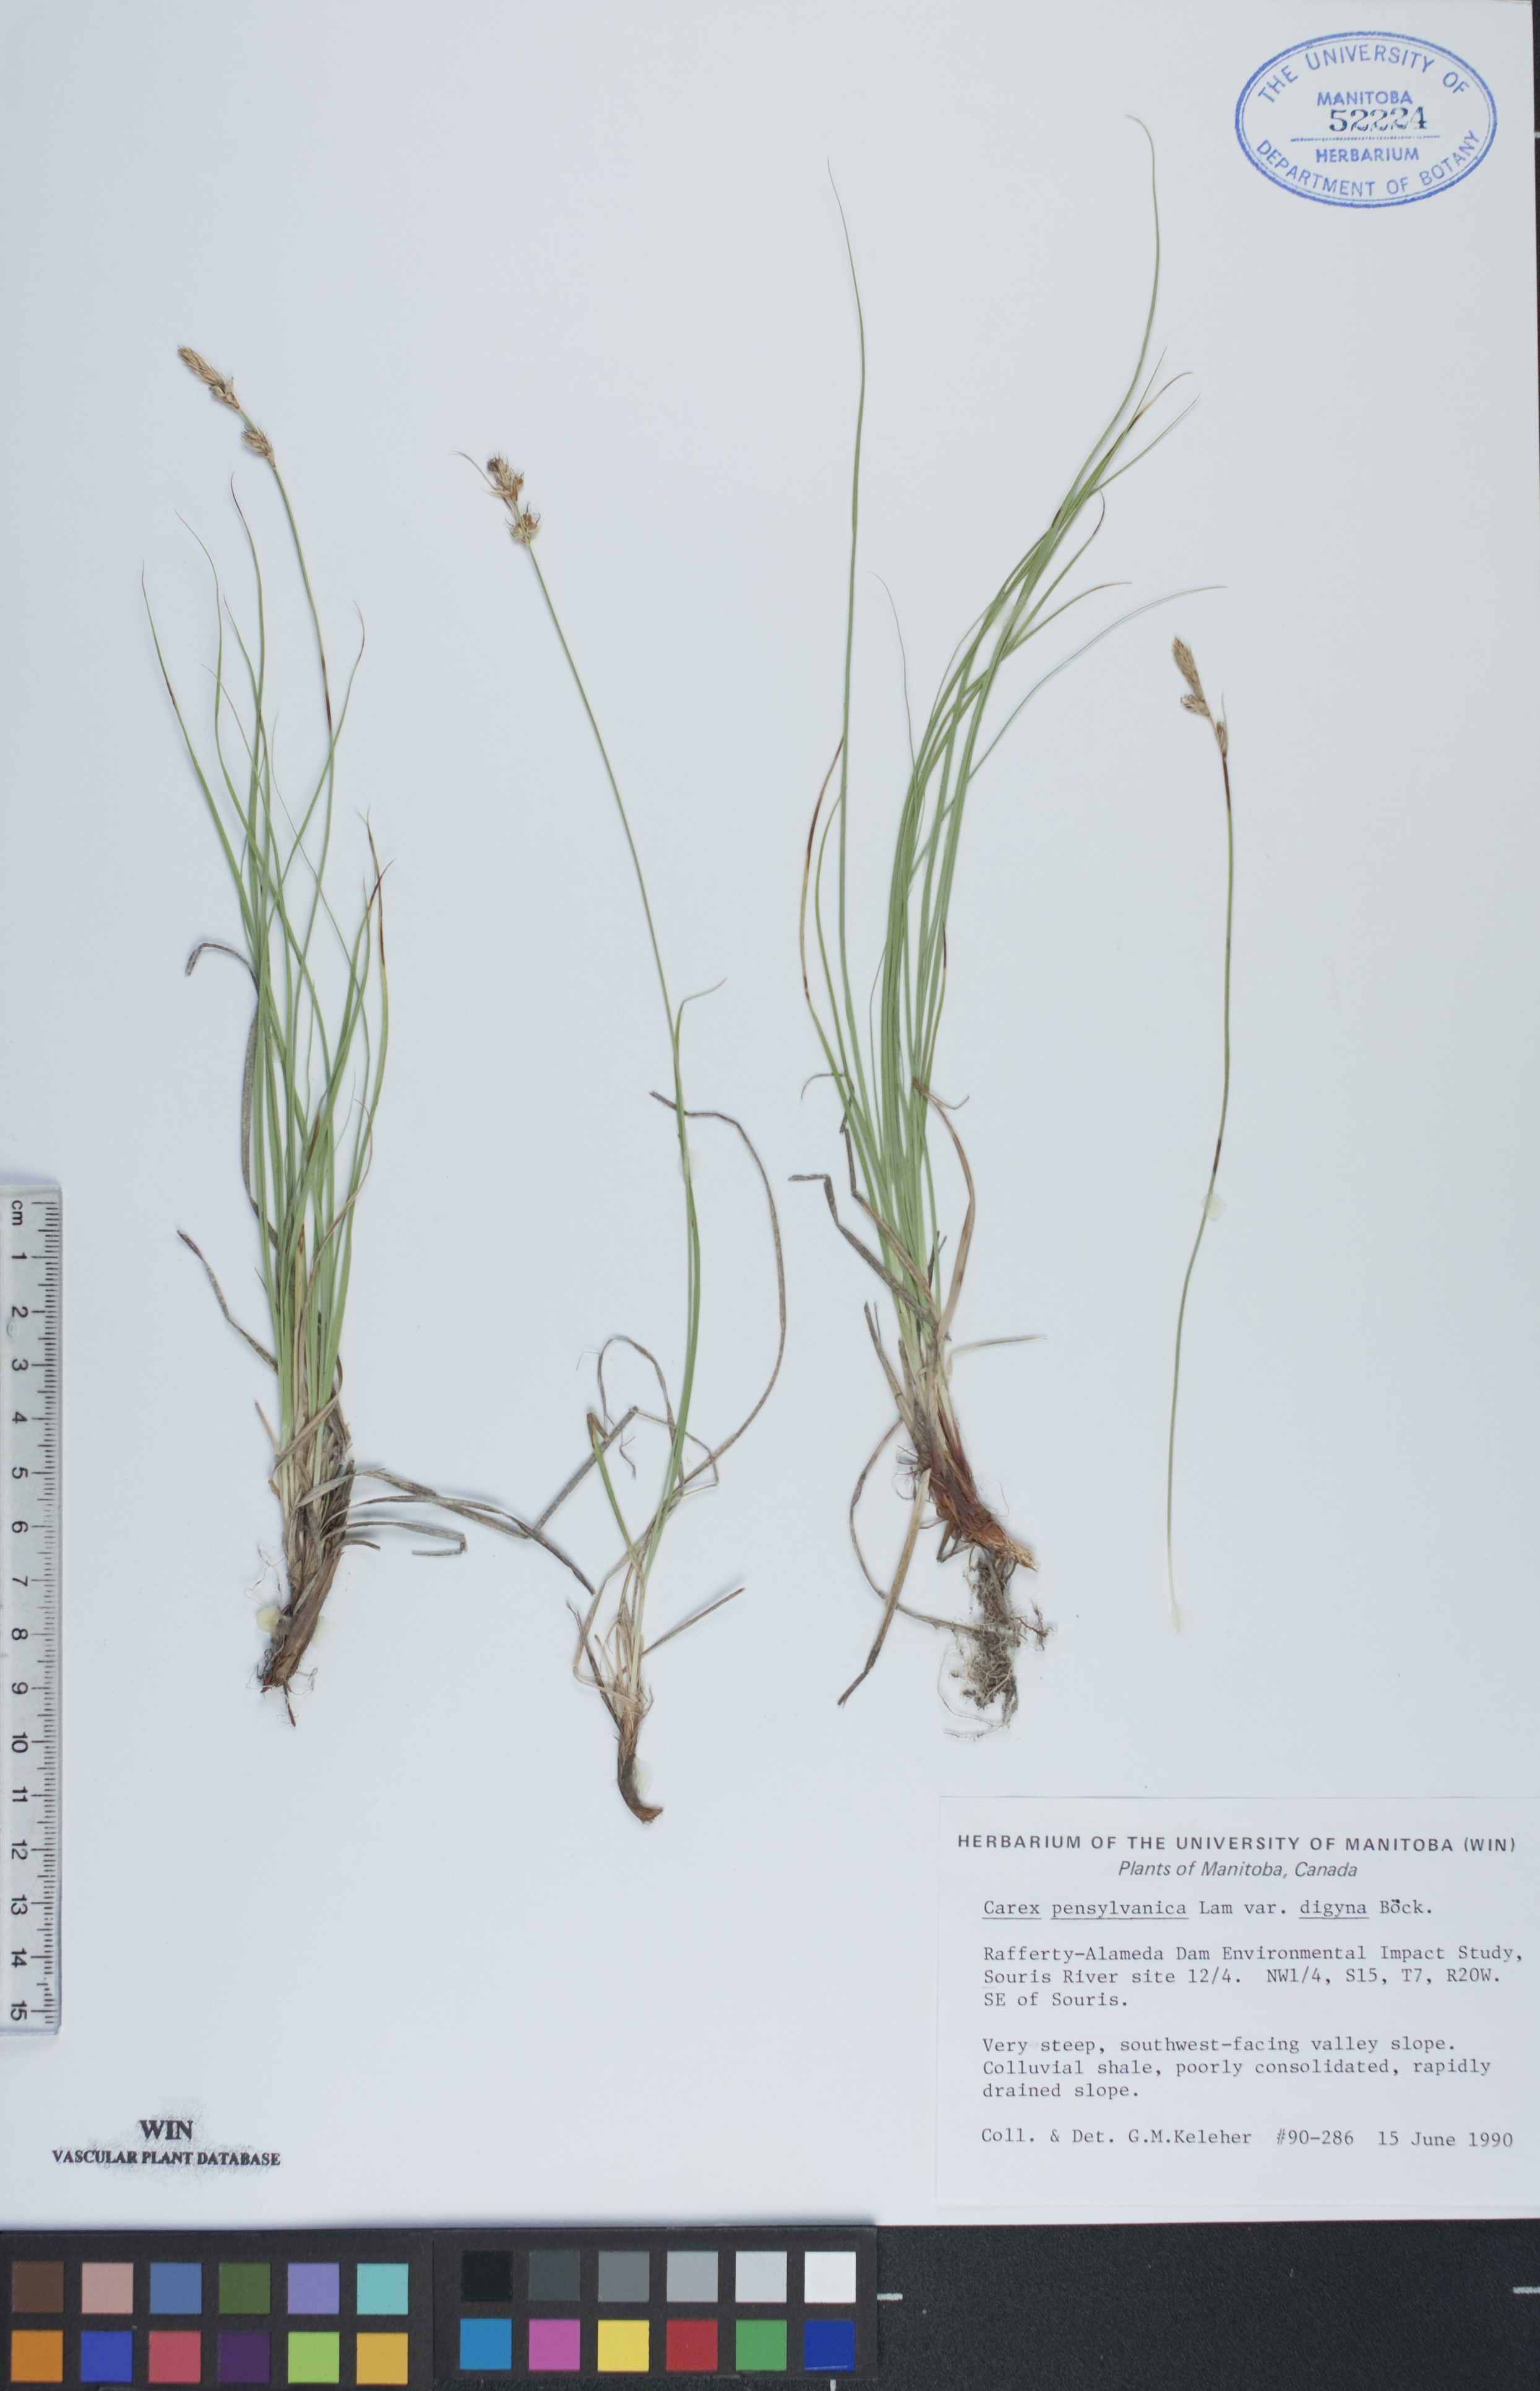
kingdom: Plantae
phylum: Tracheophyta
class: Liliopsida
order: Poales
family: Cyperaceae
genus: Carex
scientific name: Carex inops
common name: Long-stolon sedge
